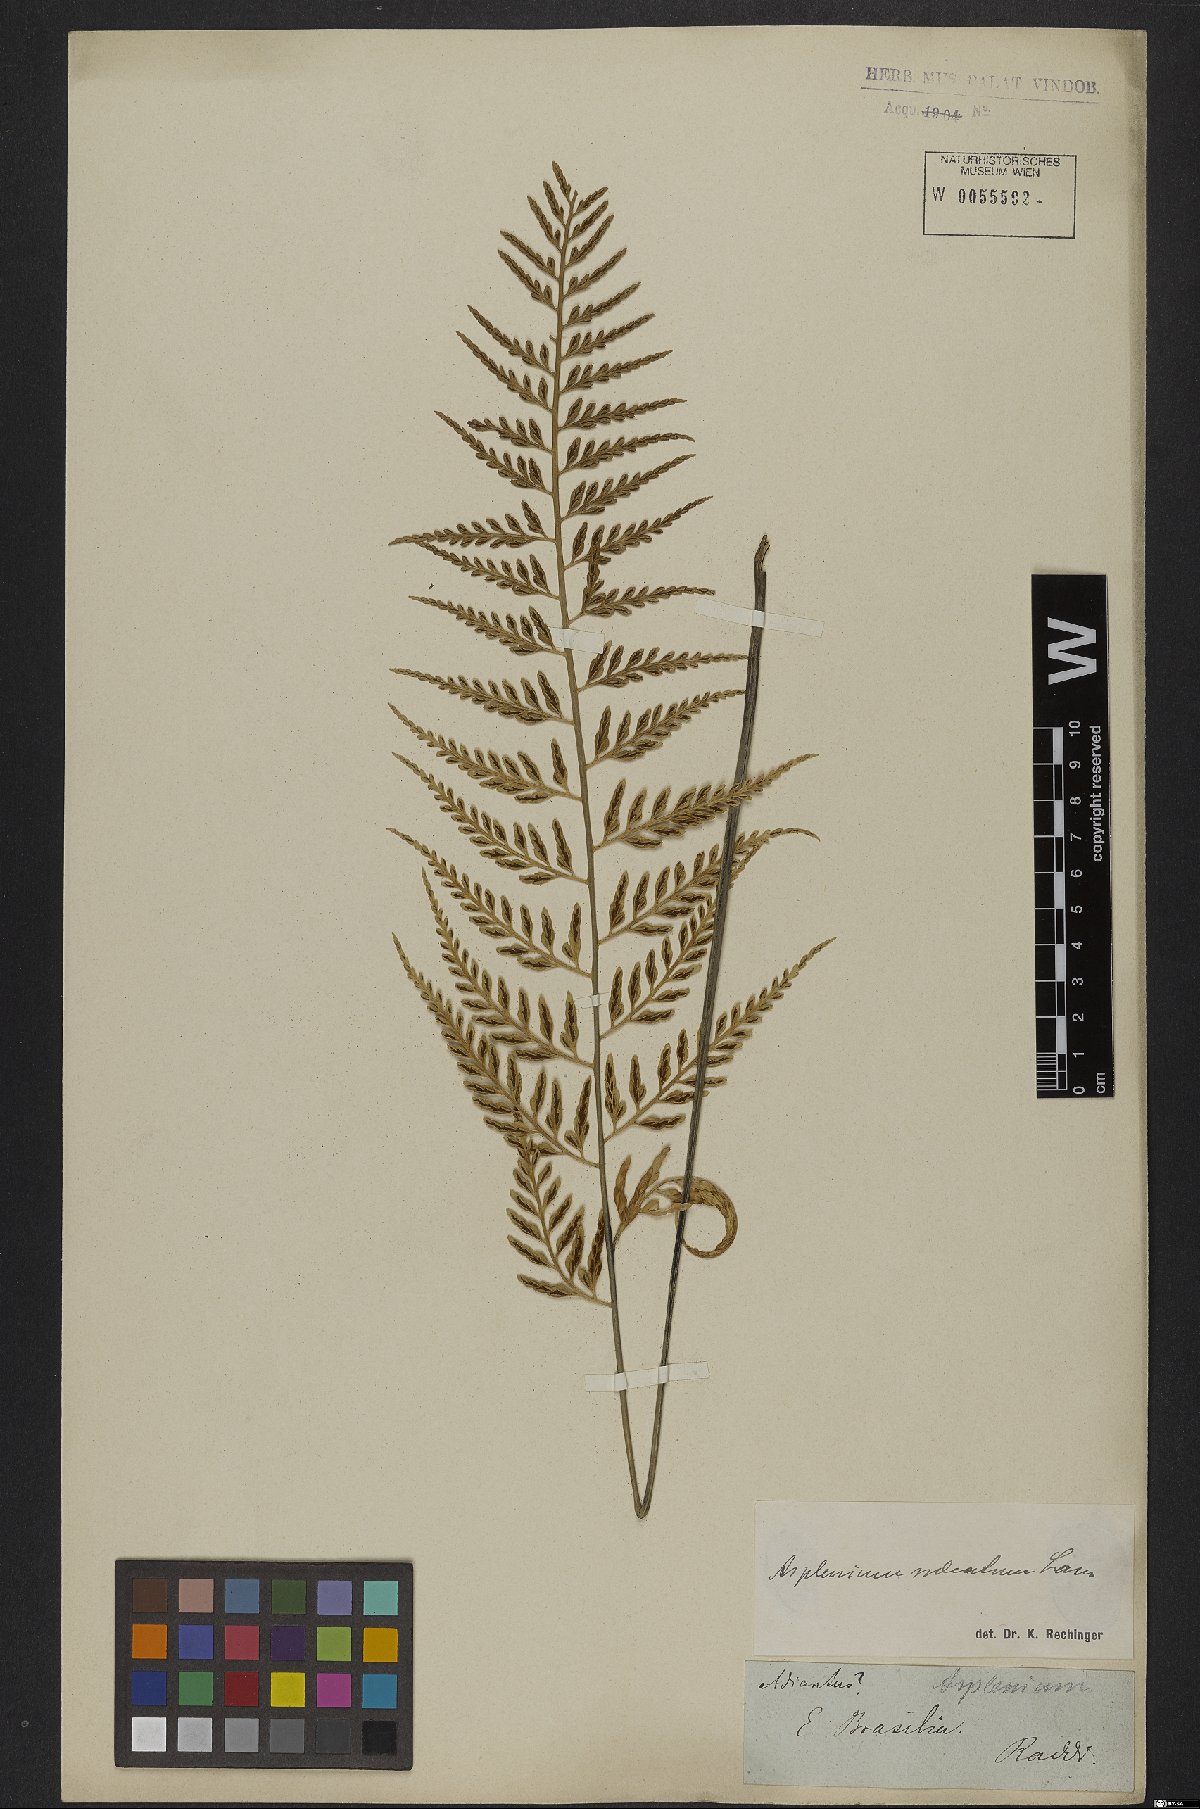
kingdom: Plantae
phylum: Tracheophyta
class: Polypodiopsida
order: Polypodiales
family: Aspleniaceae
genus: Asplenium
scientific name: Asplenium sulcatum
